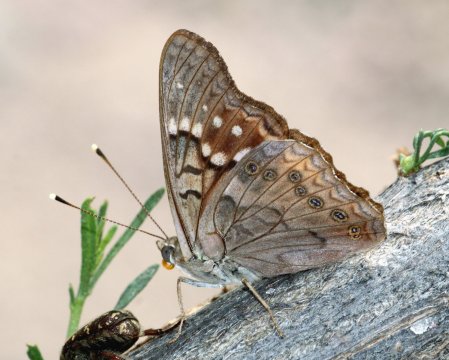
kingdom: Animalia
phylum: Arthropoda
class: Insecta
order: Lepidoptera
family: Nymphalidae
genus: Asterocampa
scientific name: Asterocampa clyton
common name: Tawny Emperor
